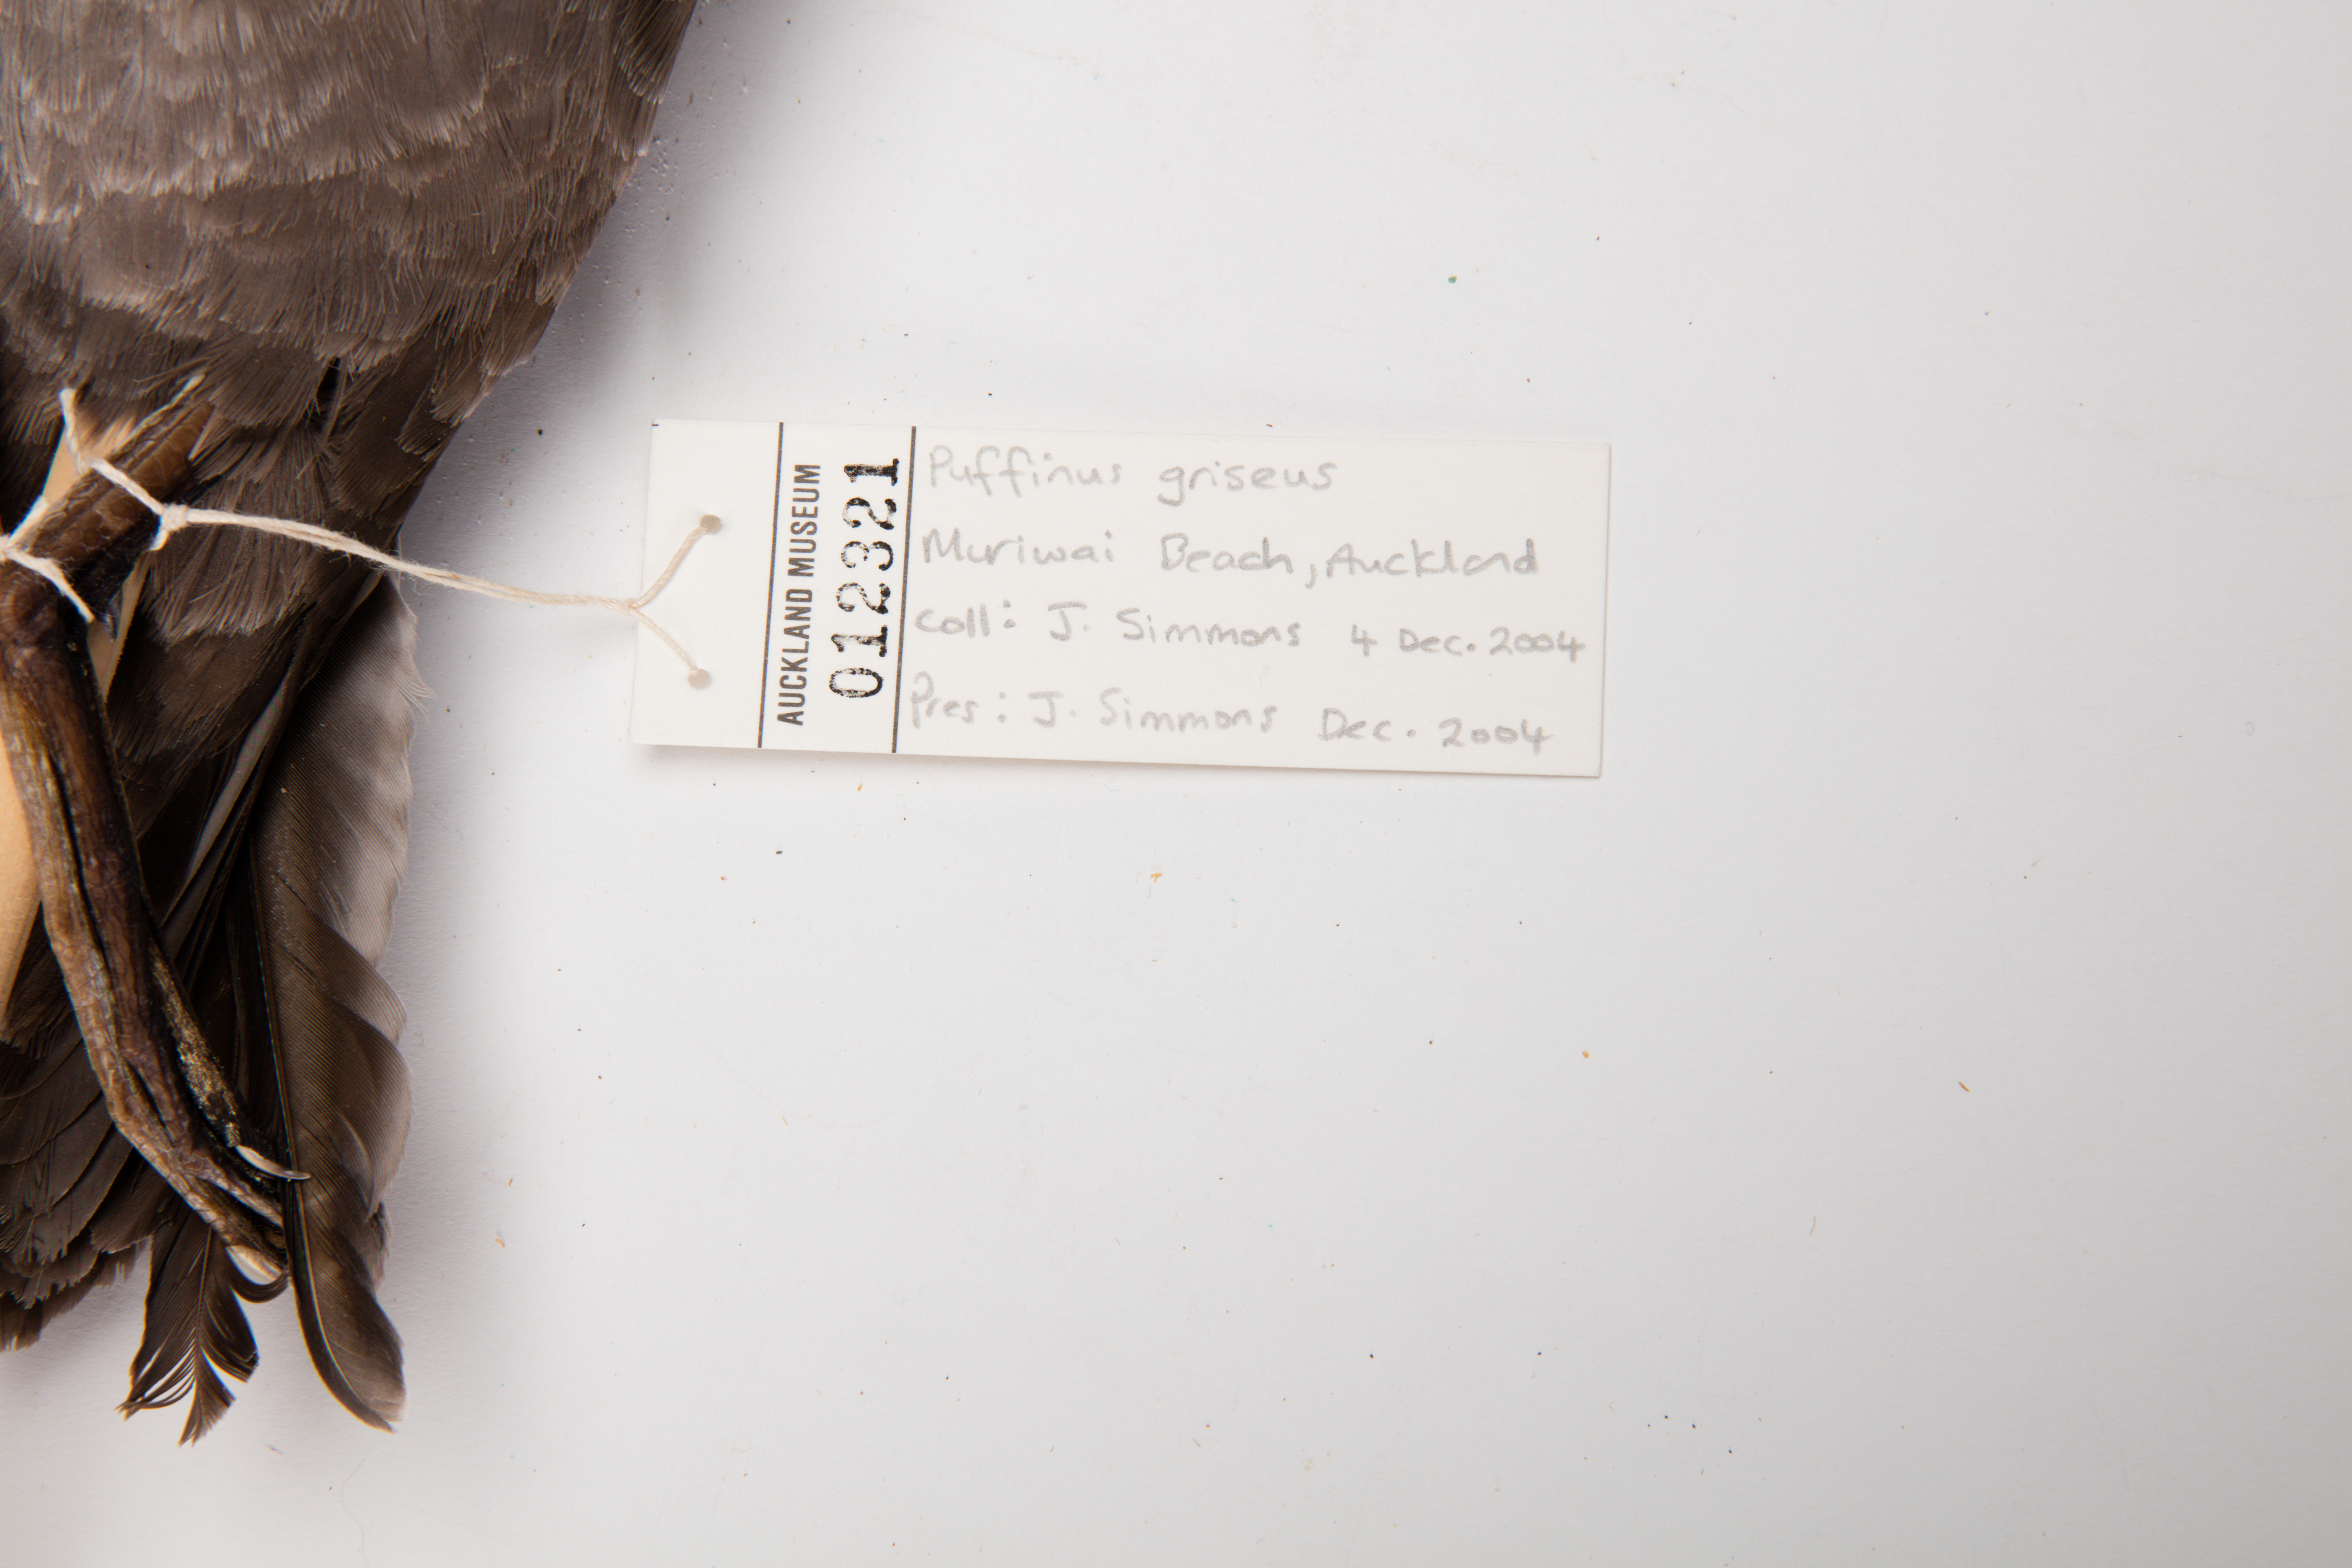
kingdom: Animalia
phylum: Chordata
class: Aves
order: Procellariiformes
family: Procellariidae
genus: Puffinus
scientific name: Puffinus griseus
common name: Sooty shearwater
